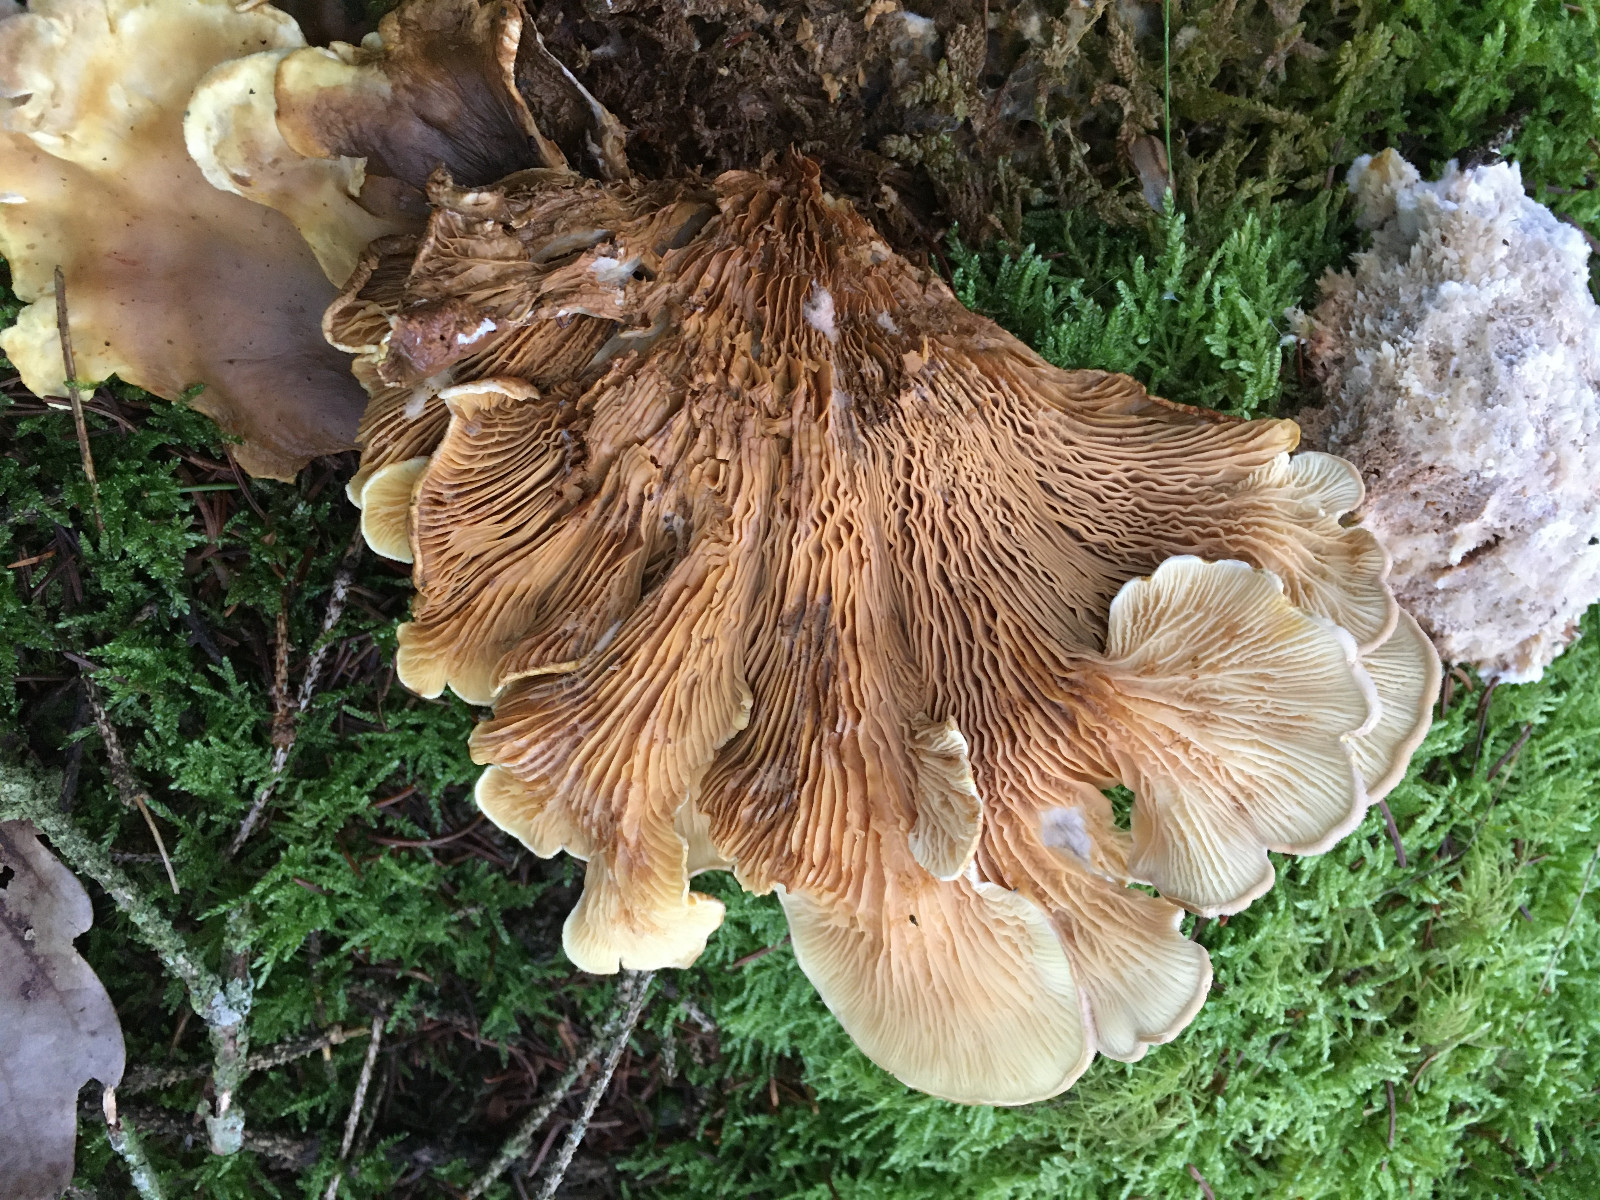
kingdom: Fungi
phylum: Basidiomycota
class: Agaricomycetes
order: Boletales
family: Tapinellaceae
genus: Tapinella
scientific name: Tapinella panuoides
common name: tømmer-viftesvamp
